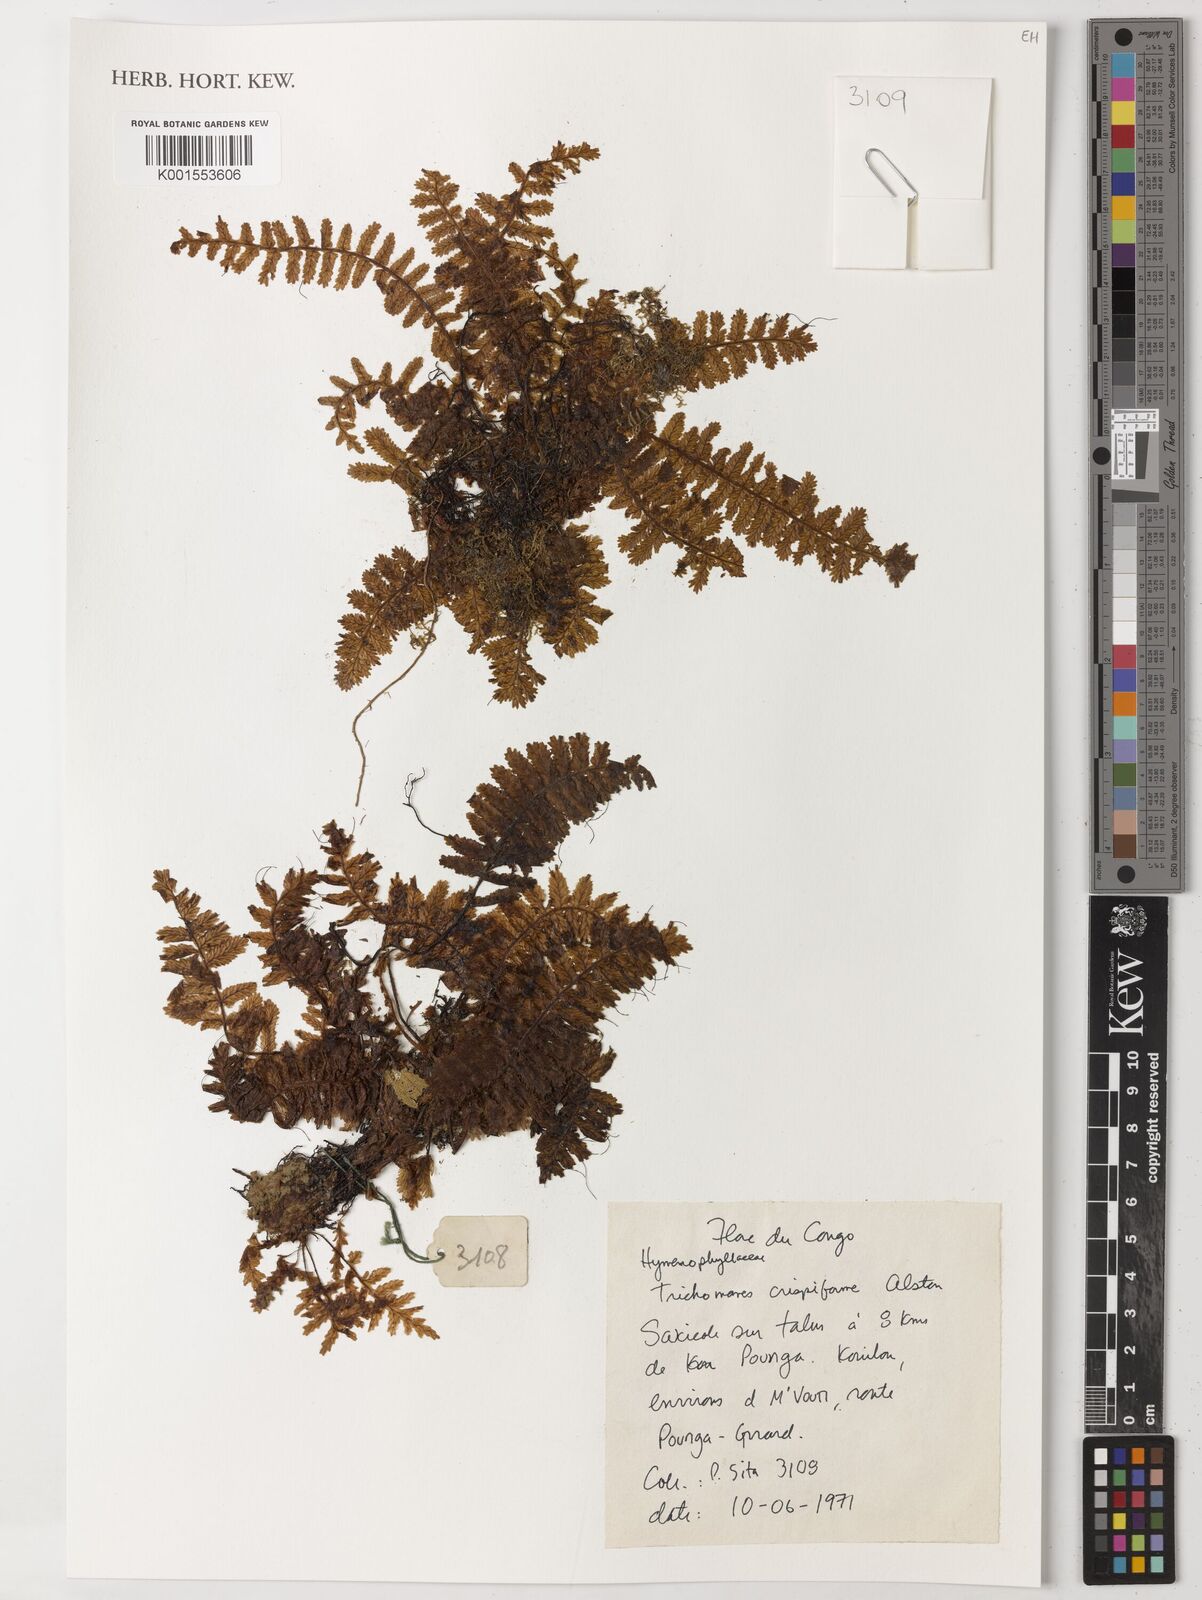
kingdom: Plantae
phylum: Tracheophyta
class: Polypodiopsida
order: Hymenophyllales
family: Hymenophyllaceae
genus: Trichomanes
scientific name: Trichomanes crispiforme
